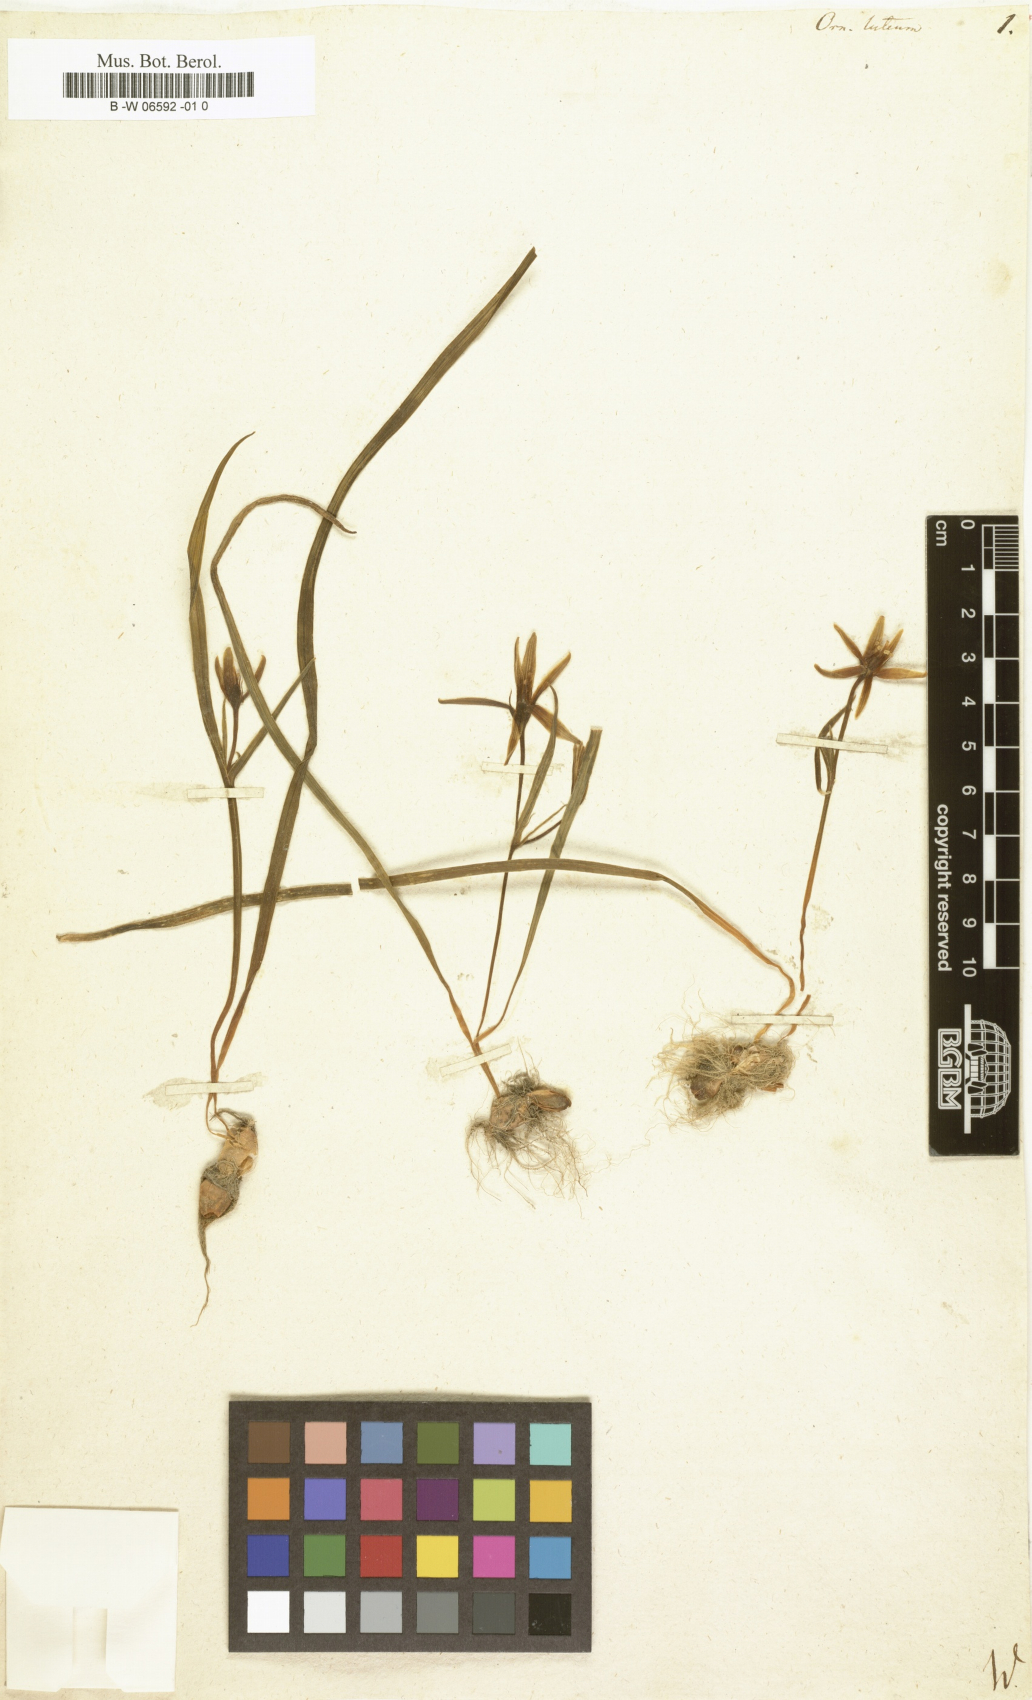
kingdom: Plantae
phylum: Tracheophyta
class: Liliopsida
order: Liliales
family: Liliaceae
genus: Gagea
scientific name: Gagea lutea
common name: Yellow star-of-bethlehem
